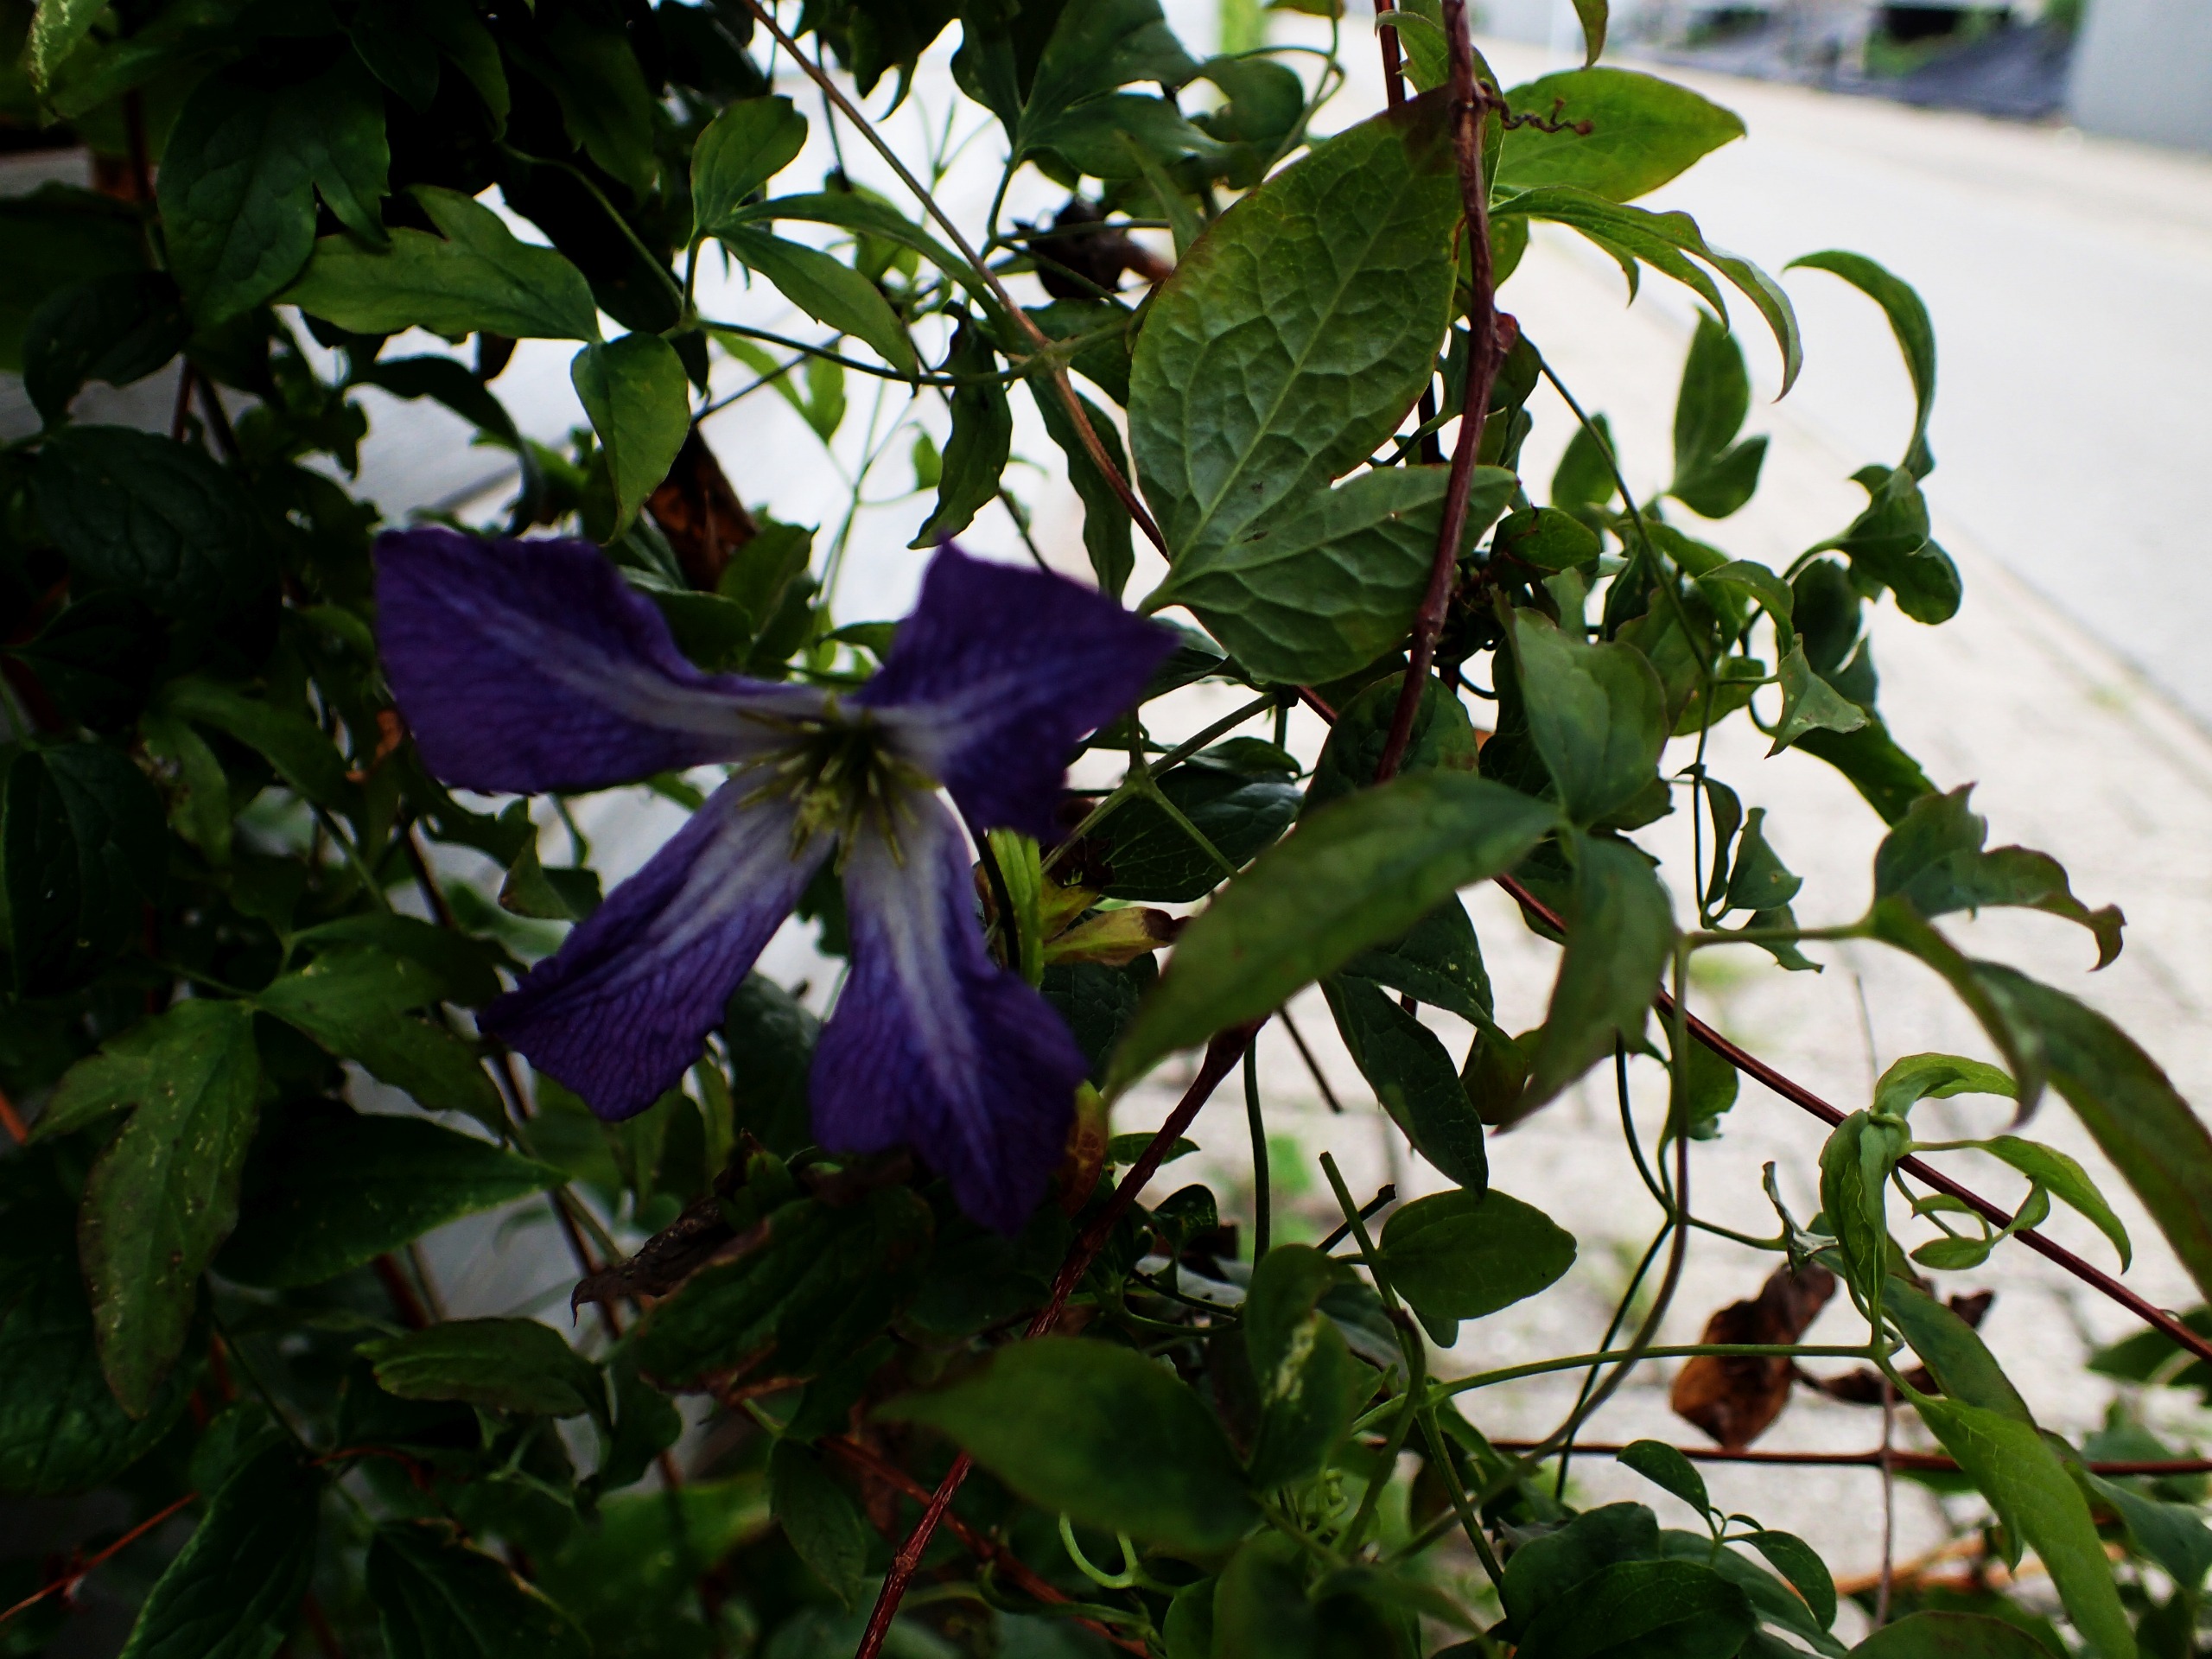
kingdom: Plantae
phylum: Tracheophyta
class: Magnoliopsida
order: Ranunculales
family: Ranunculaceae
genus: Clematis
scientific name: Clematis viticella
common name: Italiensk skovranke
